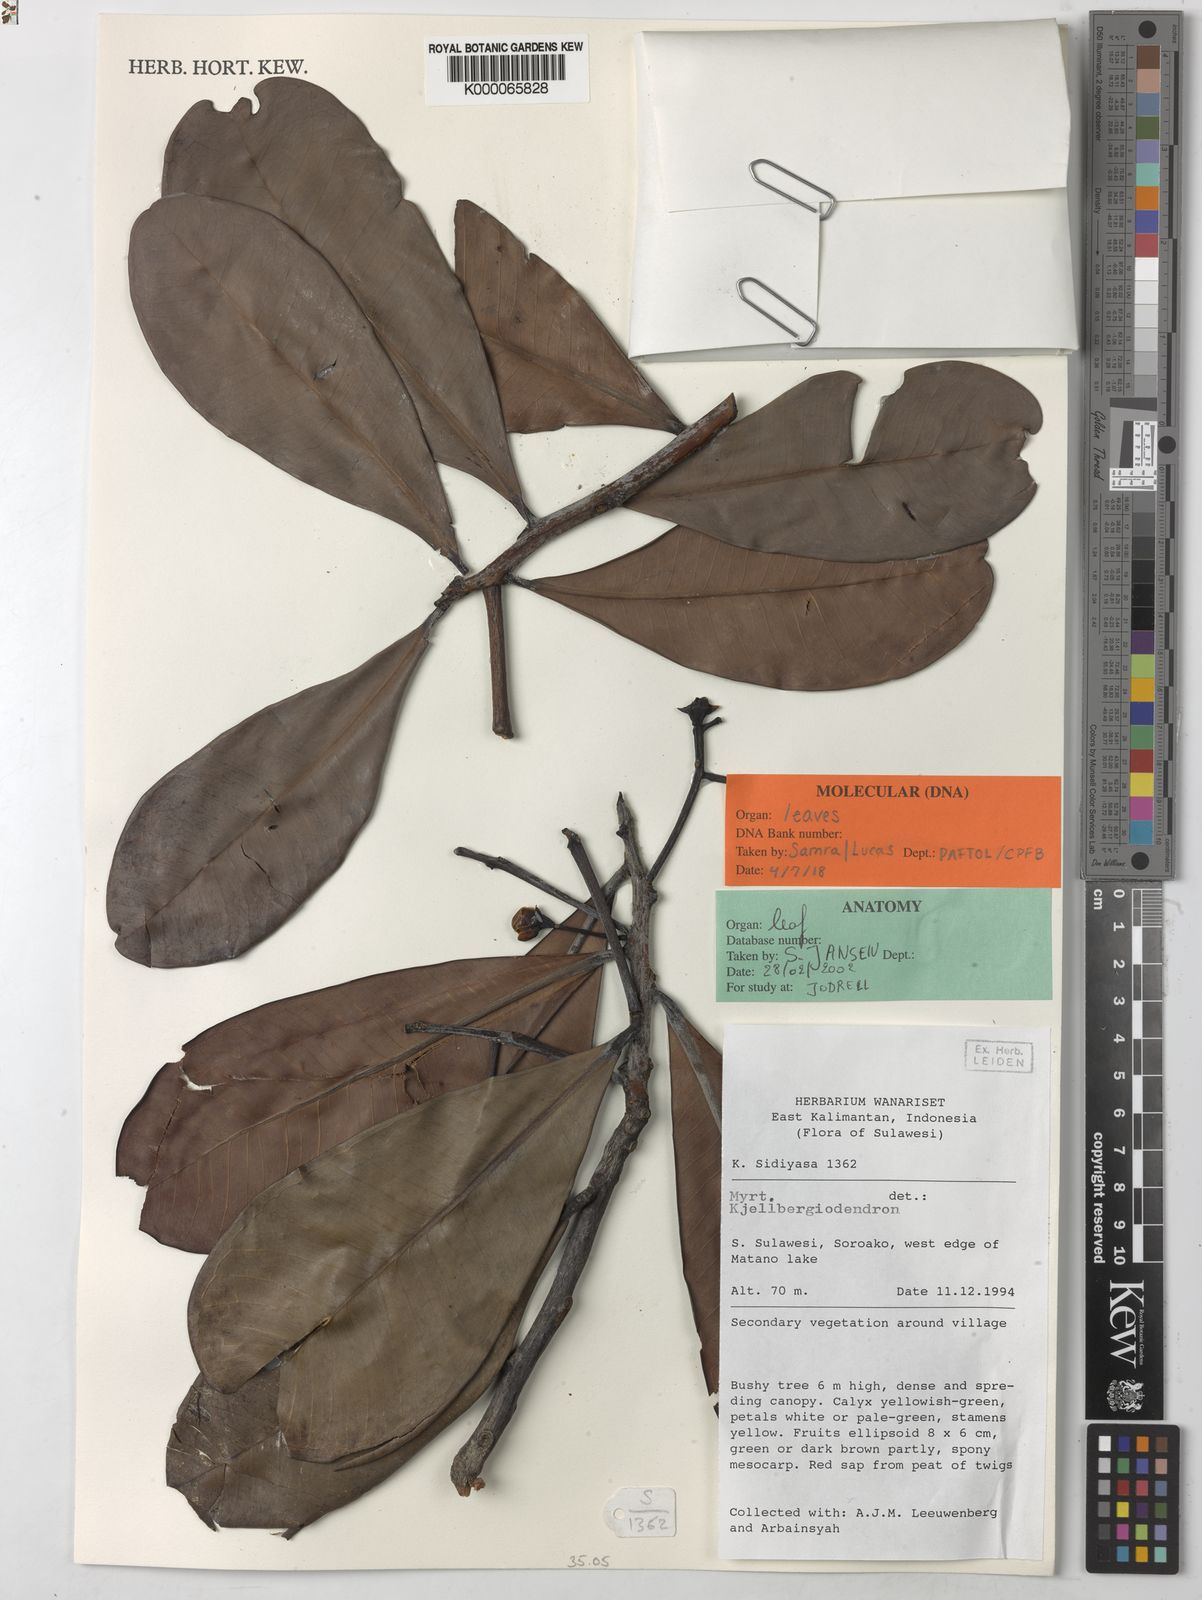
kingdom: Plantae
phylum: Tracheophyta
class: Magnoliopsida
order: Myrtales
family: Myrtaceae
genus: Kjellbergiodendron
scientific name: Kjellbergiodendron
